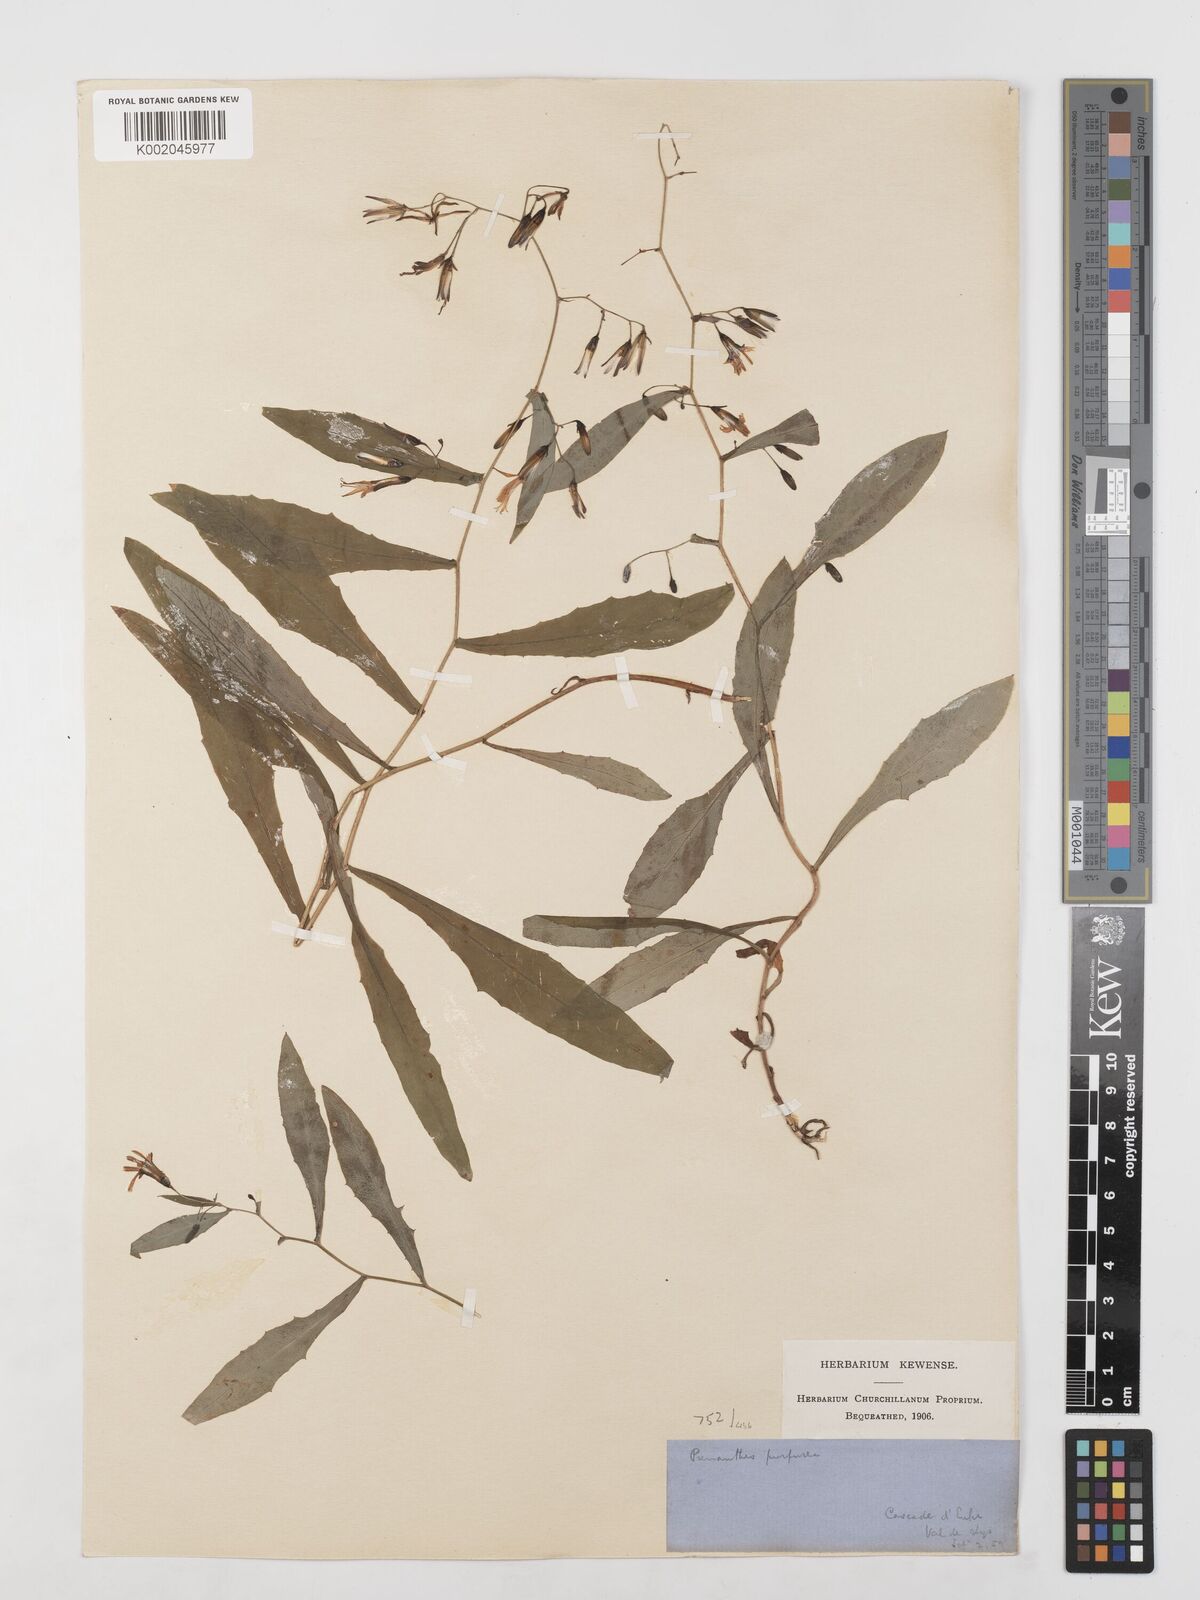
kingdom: Plantae
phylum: Tracheophyta
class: Magnoliopsida
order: Asterales
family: Asteraceae
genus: Prenanthes
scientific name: Prenanthes purpurea
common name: Purple lettuce
